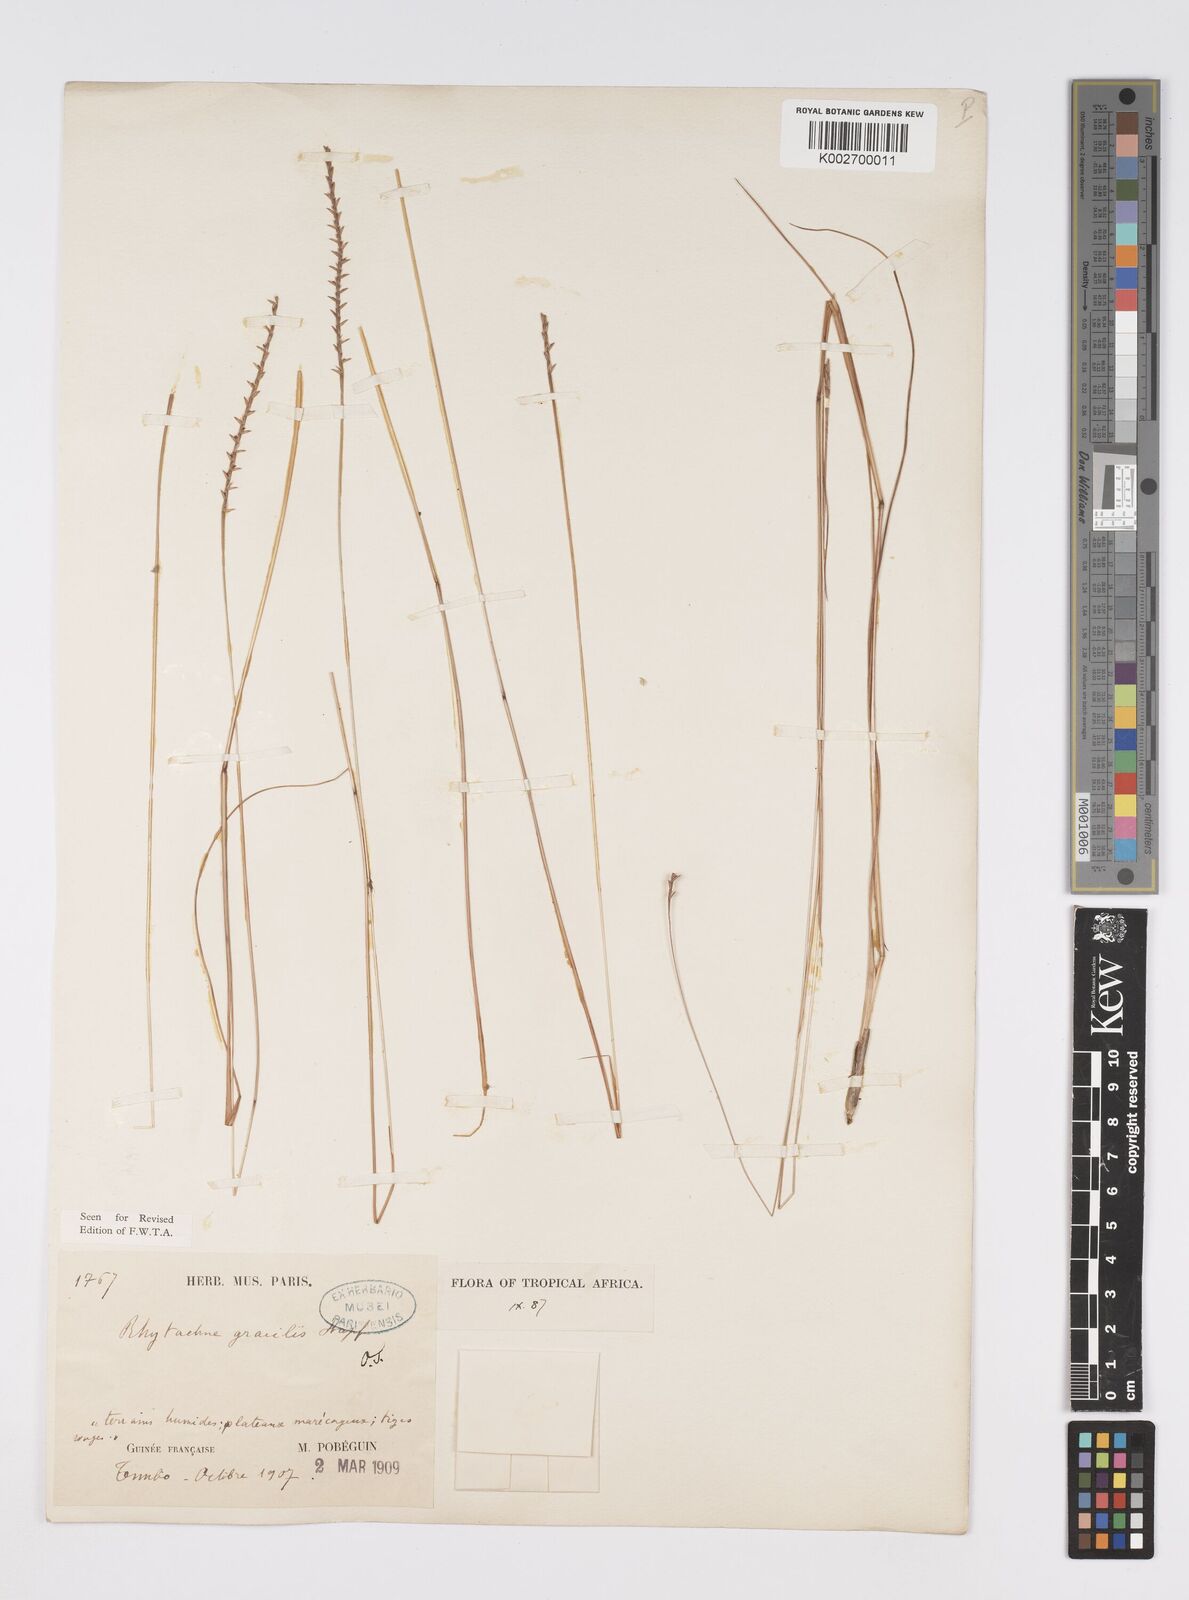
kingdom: Plantae
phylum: Tracheophyta
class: Liliopsida
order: Poales
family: Poaceae
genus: Rhytachne
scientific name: Rhytachne gracilis
